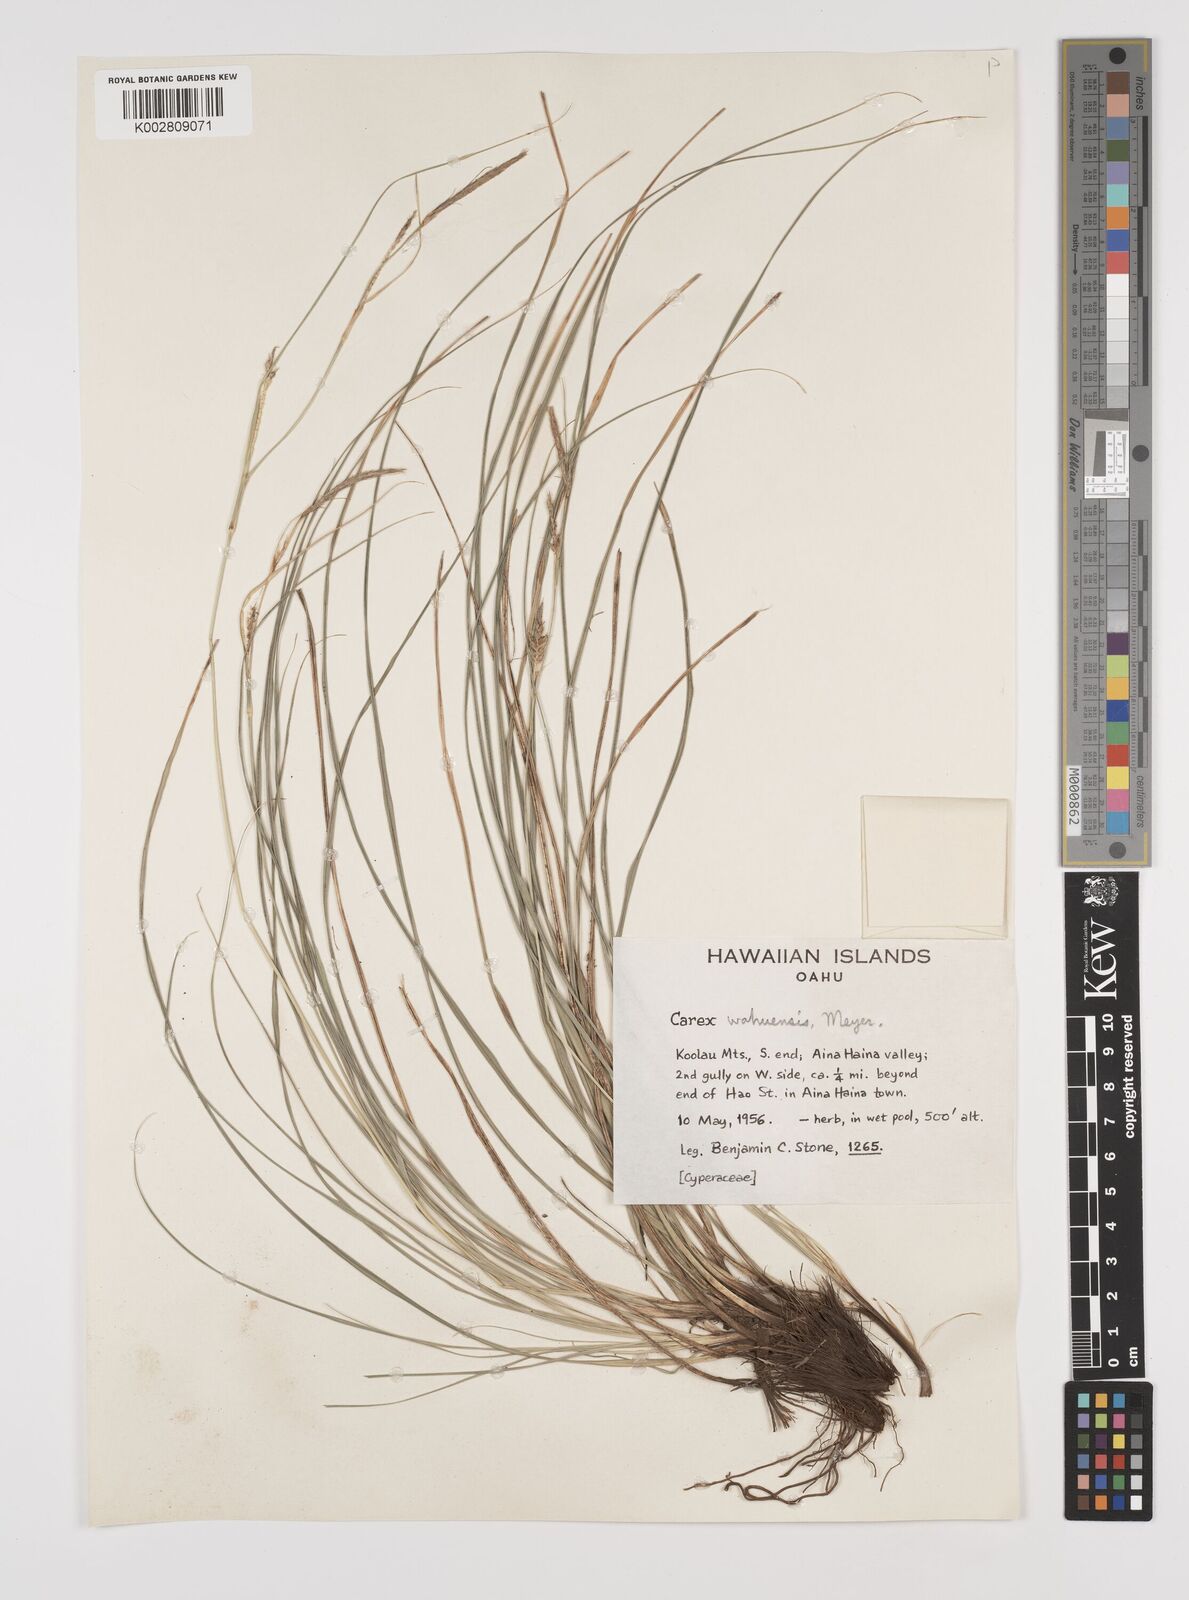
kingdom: Plantae
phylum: Tracheophyta
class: Liliopsida
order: Poales
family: Cyperaceae
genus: Carex
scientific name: Carex wahuensis
